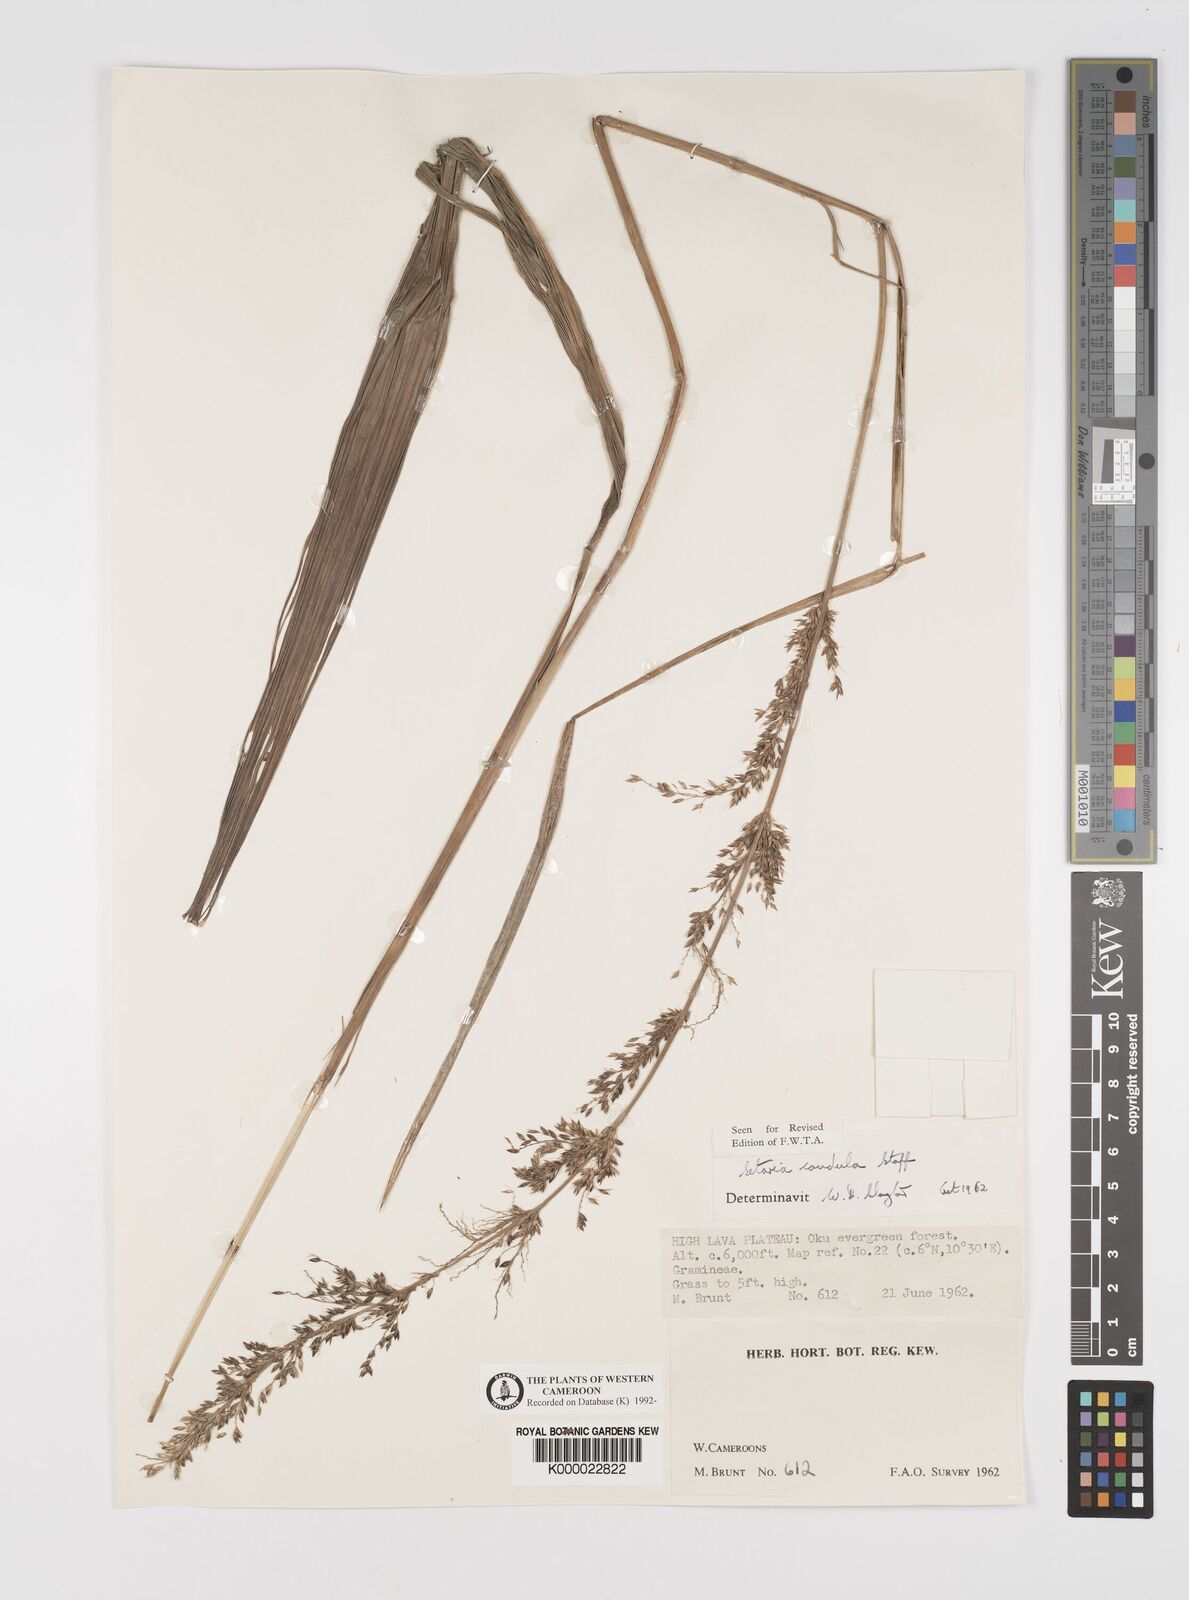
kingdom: Plantae
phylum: Tracheophyta
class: Liliopsida
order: Poales
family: Poaceae
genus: Setaria
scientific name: Setaria poiretiana
